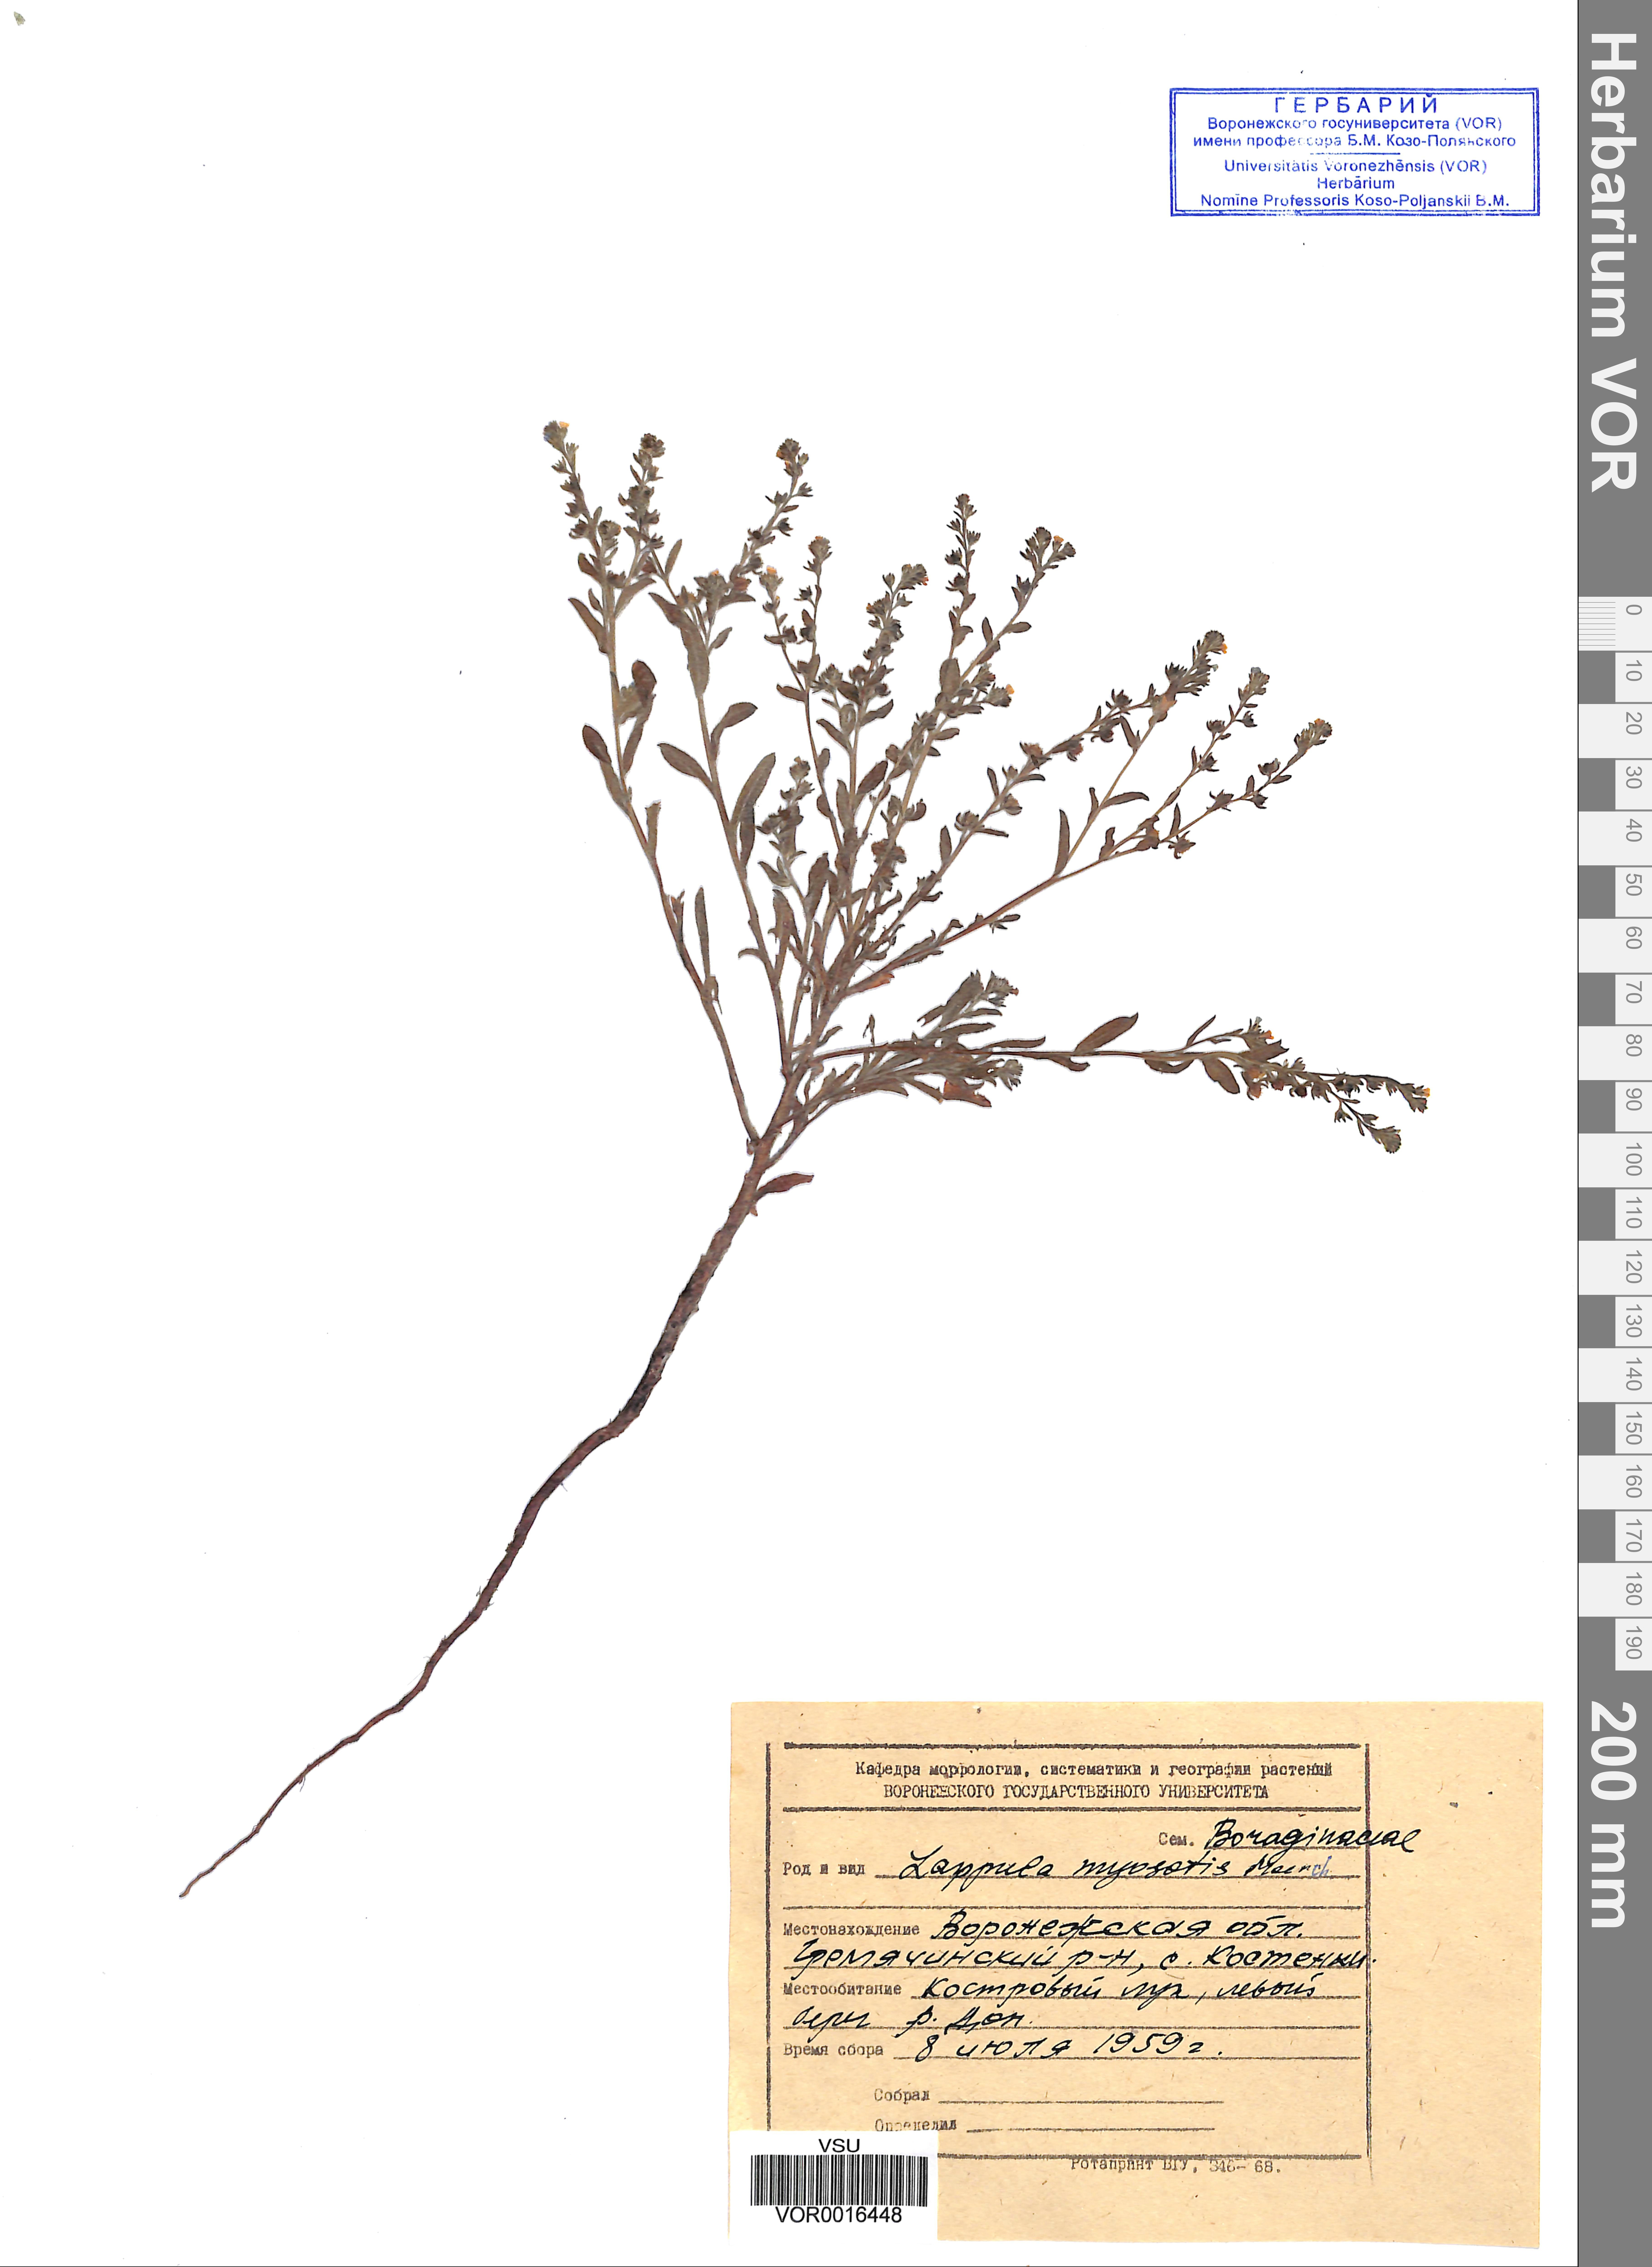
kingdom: Plantae
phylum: Tracheophyta
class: Magnoliopsida
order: Boraginales
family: Boraginaceae
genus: Lappula
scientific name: Lappula squarrosa
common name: European stickseed
